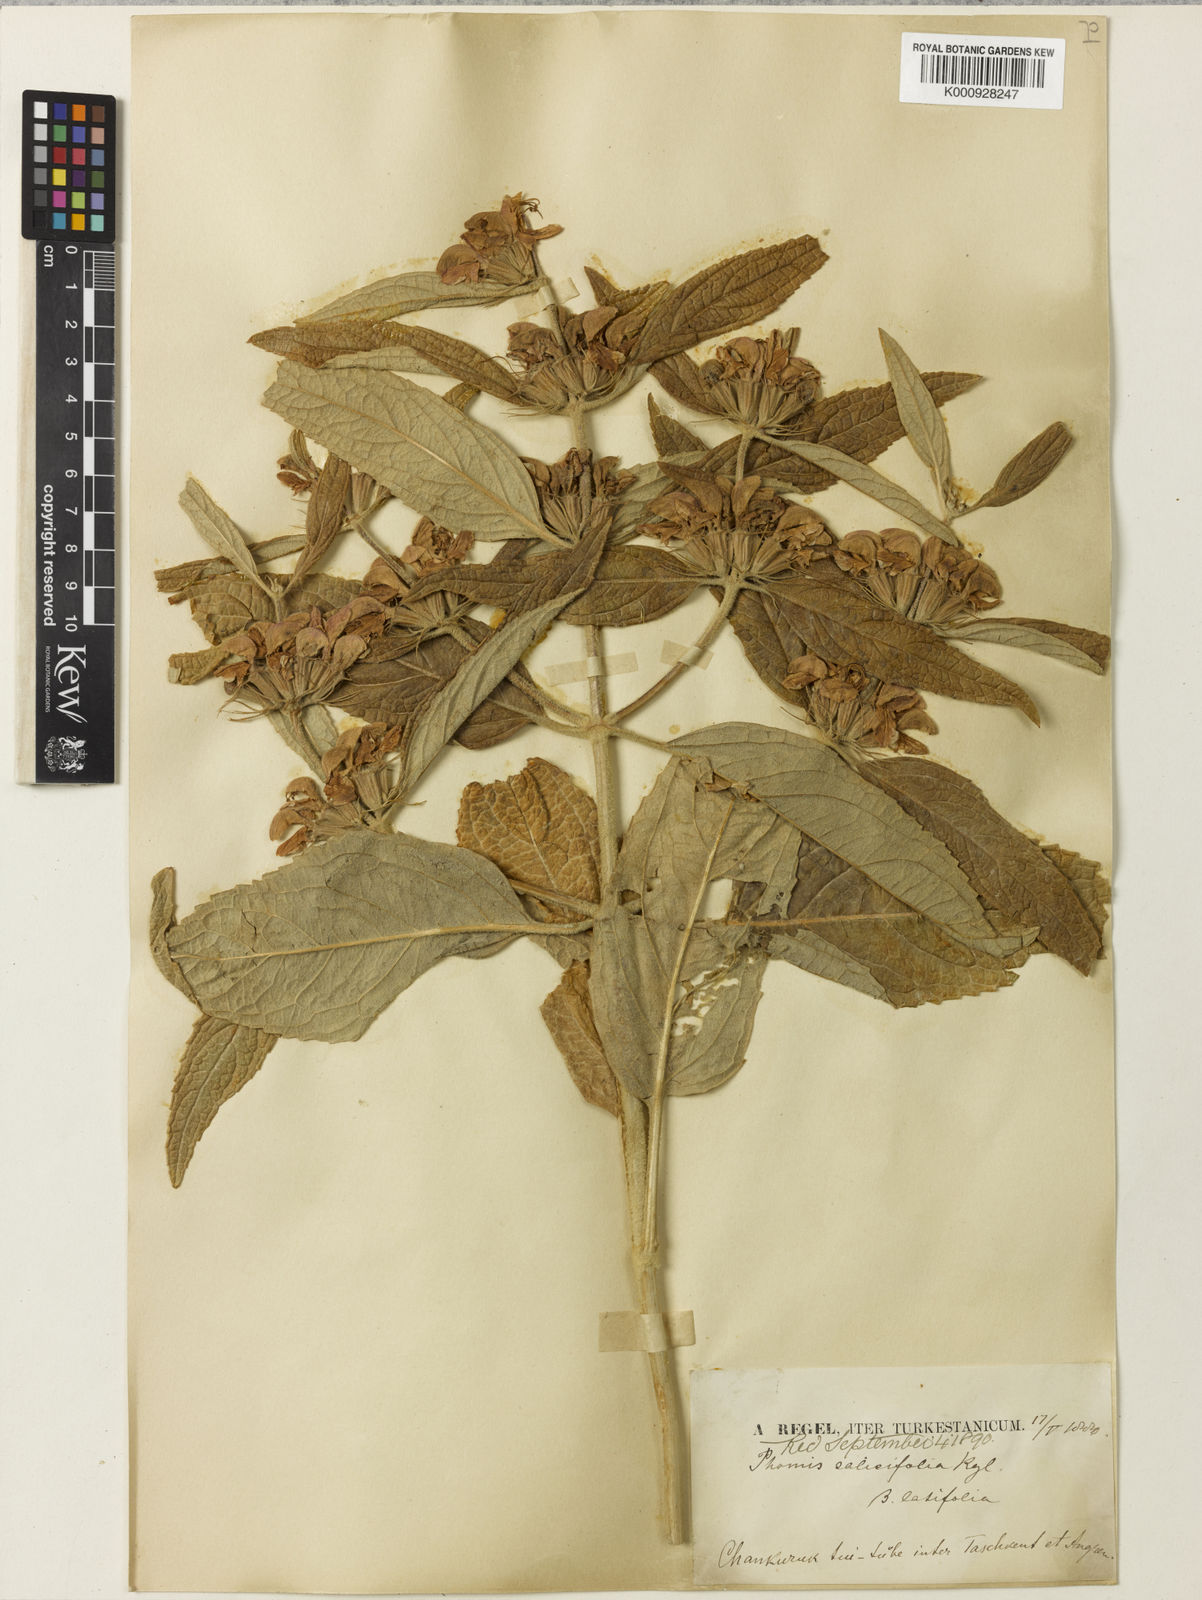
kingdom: Plantae
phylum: Tracheophyta
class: Magnoliopsida
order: Lamiales
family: Lamiaceae
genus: Phlomis
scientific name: Phlomis salicifolia
